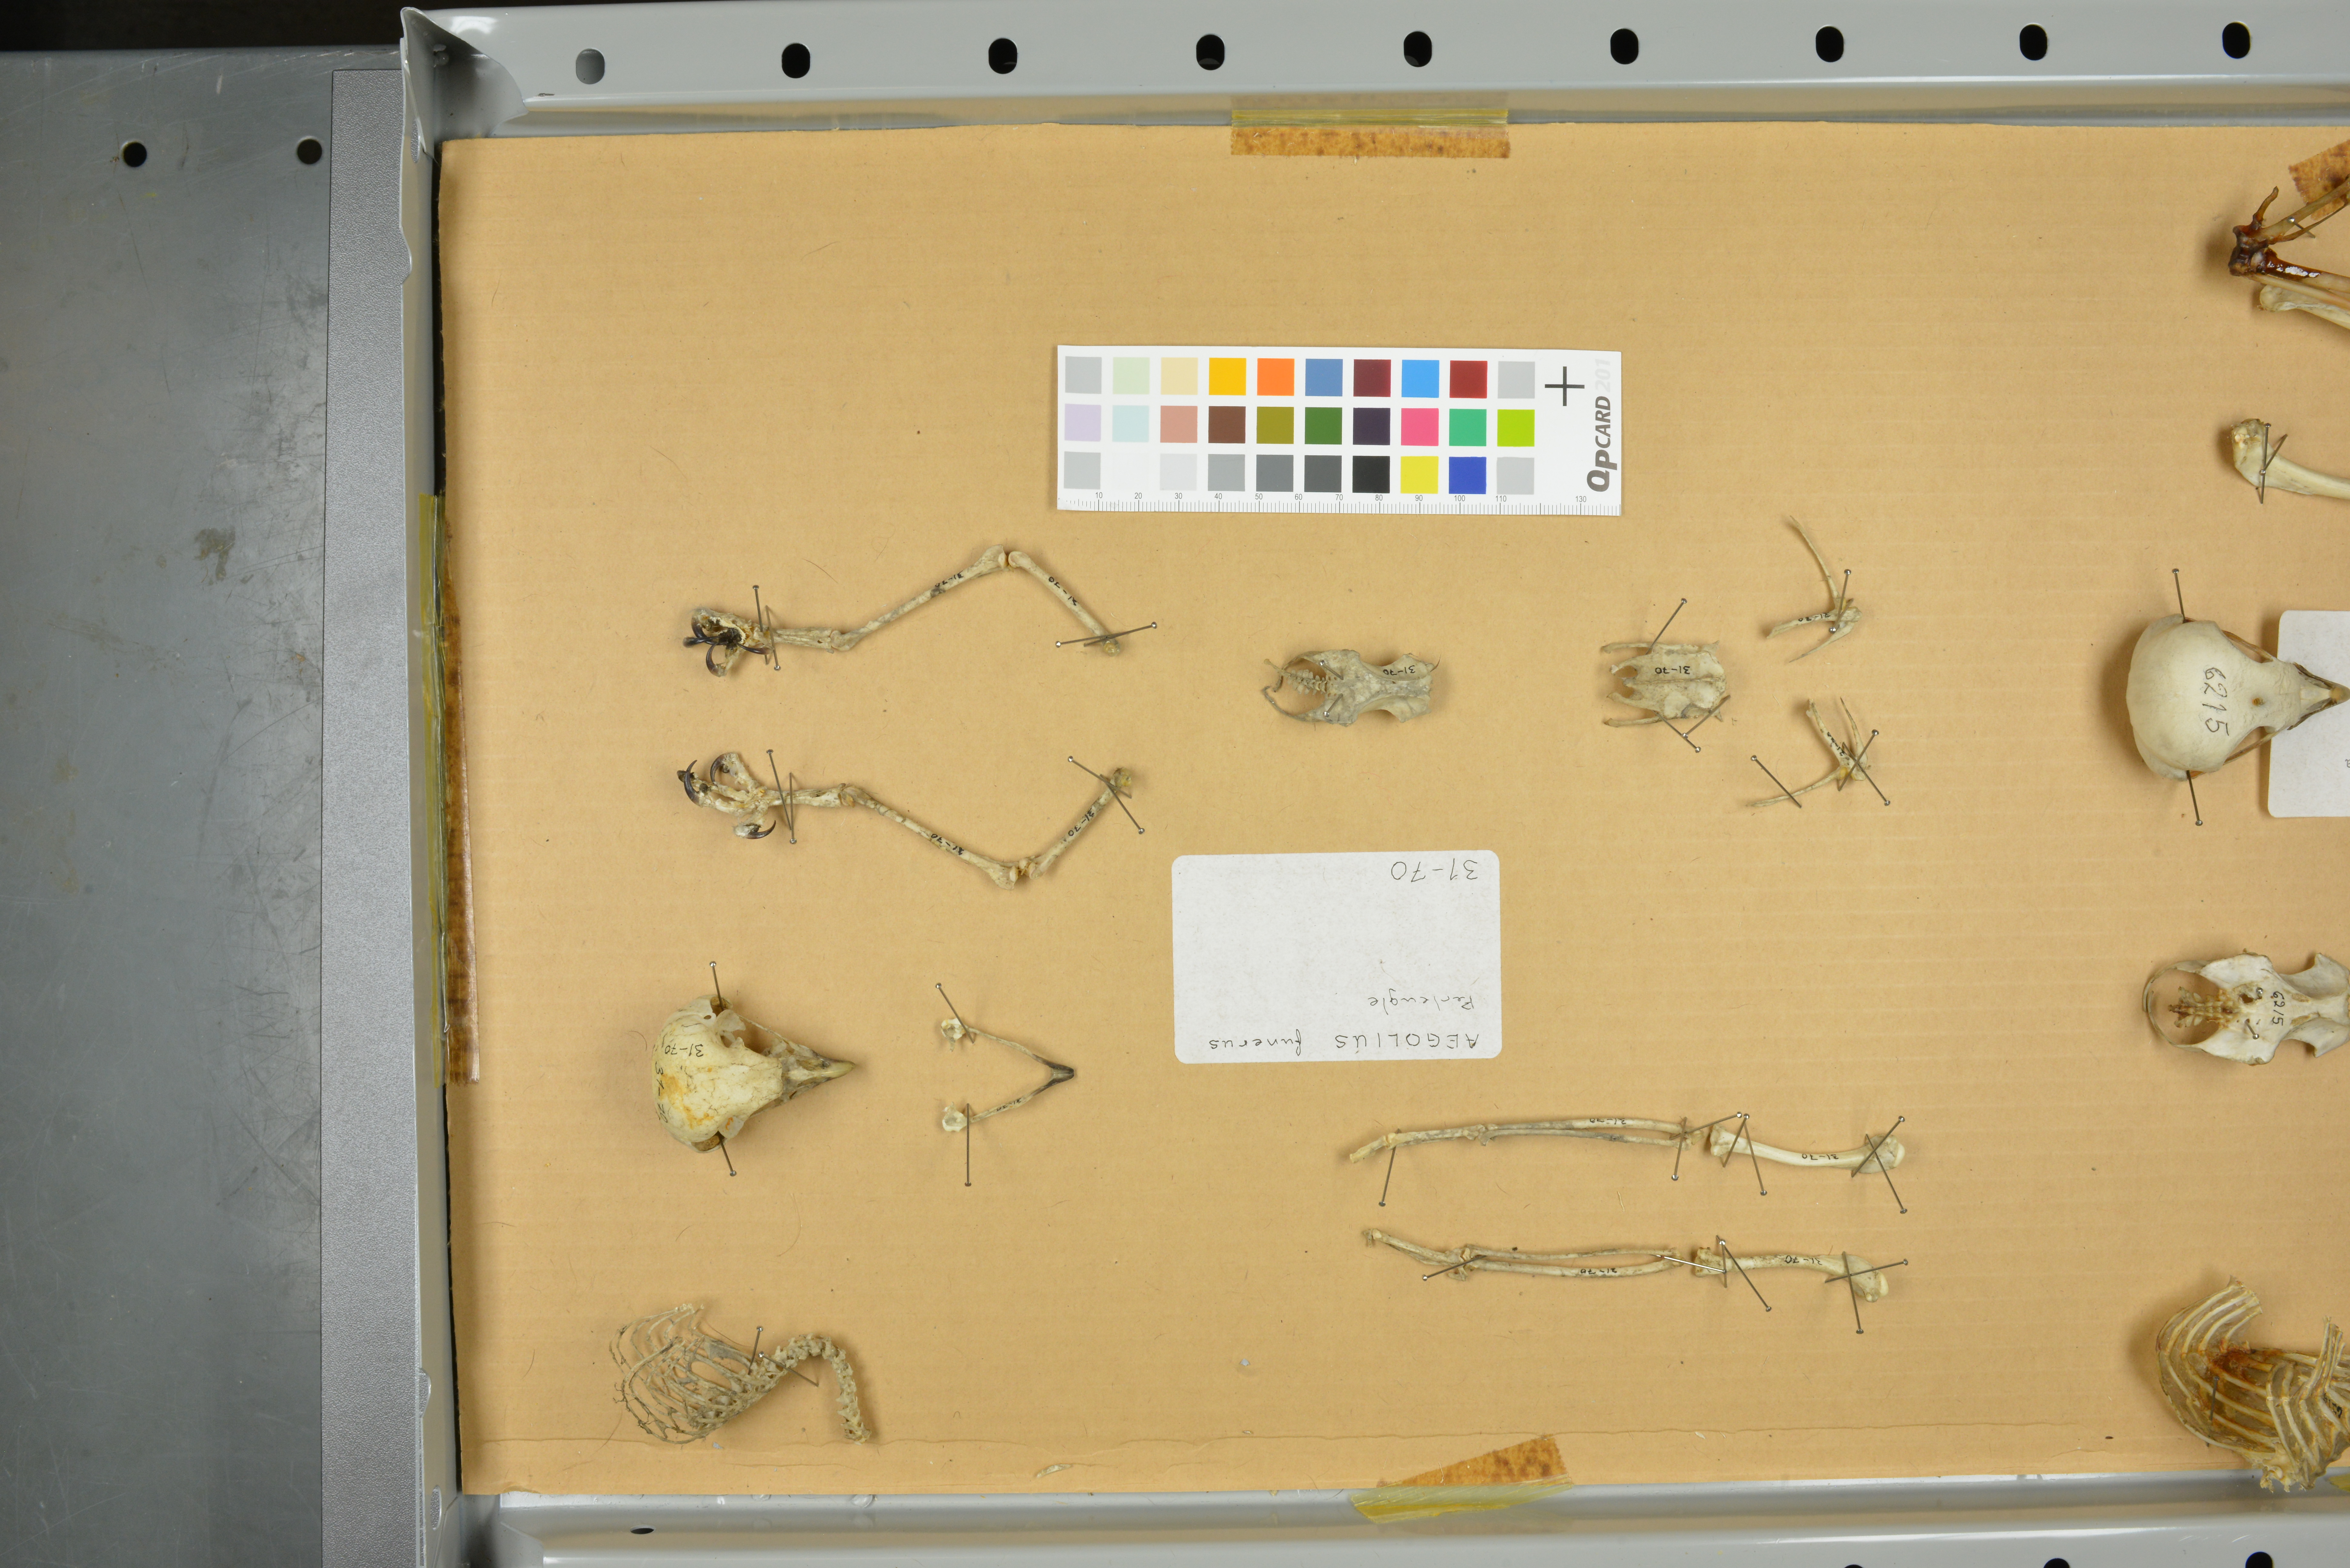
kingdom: Animalia
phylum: Chordata
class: Aves
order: Strigiformes
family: Strigidae
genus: Aegolius
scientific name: Aegolius funereus
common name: Boreal owl
